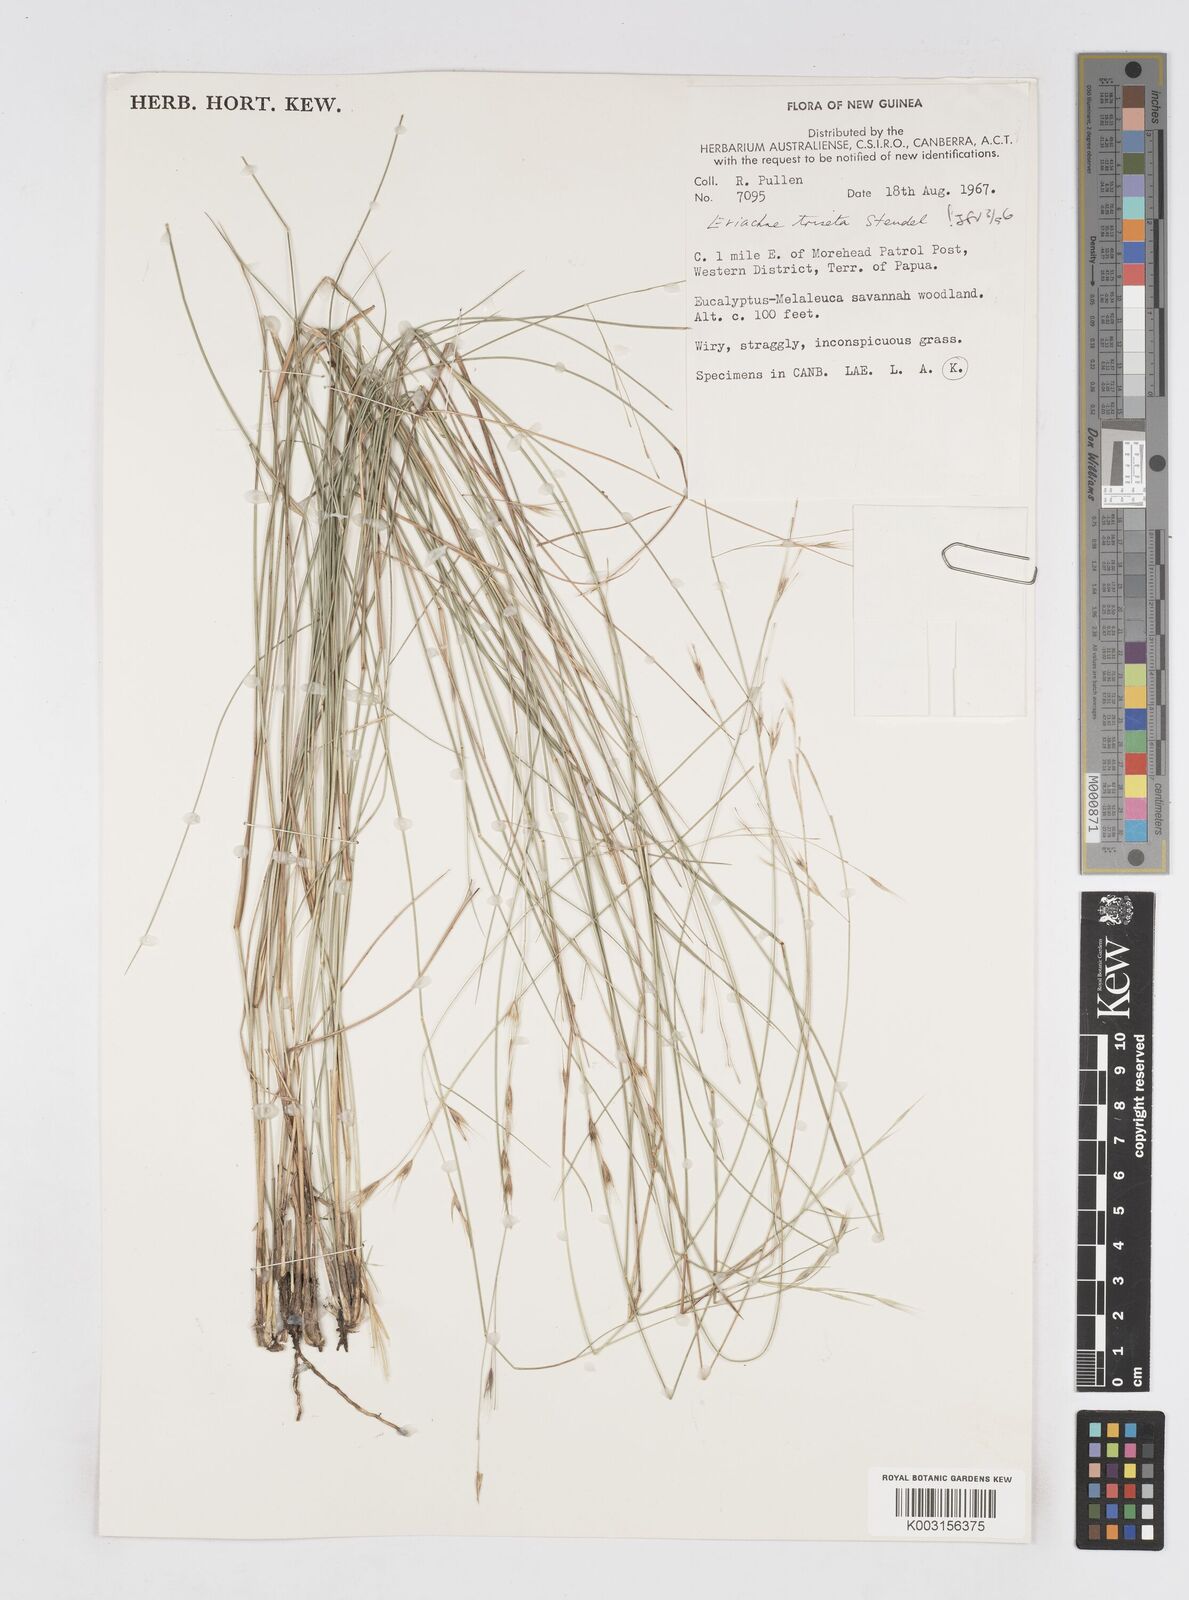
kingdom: Plantae
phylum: Tracheophyta
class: Liliopsida
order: Poales
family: Poaceae
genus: Eriachne
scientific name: Eriachne triseta
